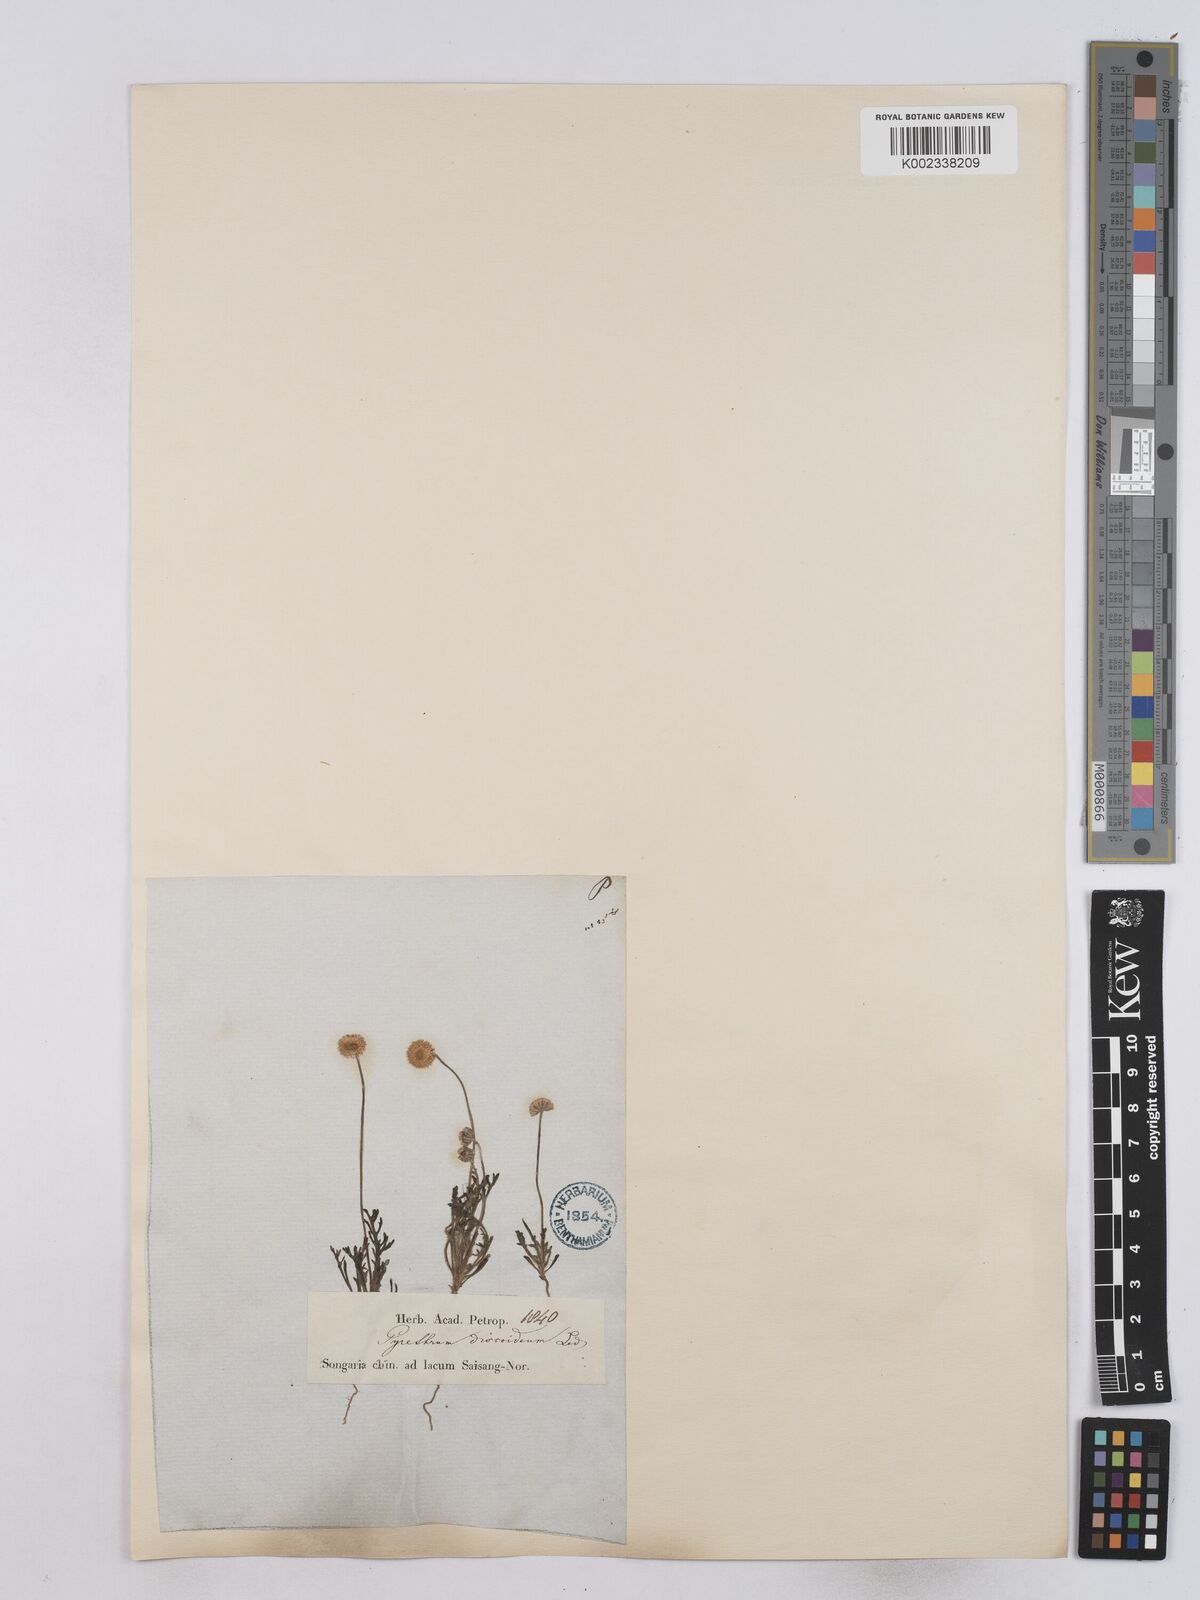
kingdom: Plantae
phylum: Tracheophyta
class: Magnoliopsida
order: Asterales
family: Asteraceae
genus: Matricaria
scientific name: Matricaria discoidea
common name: Disc mayweed
